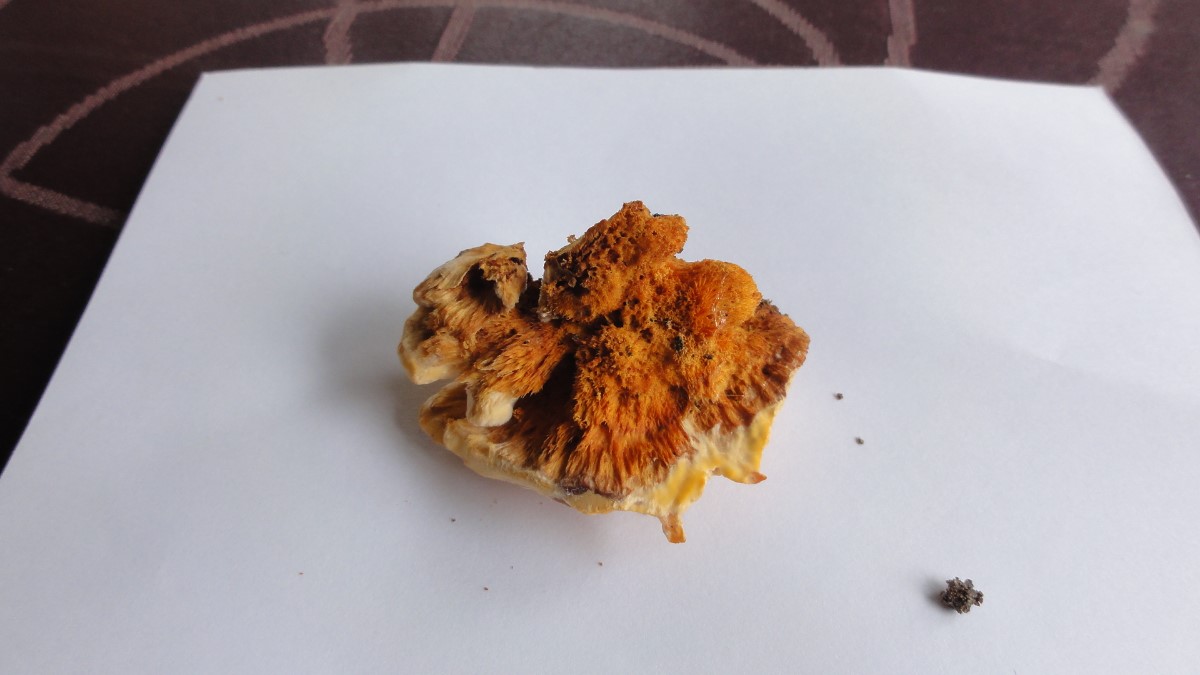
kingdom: Fungi
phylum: Basidiomycota
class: Agaricomycetes
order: Polyporales
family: Pycnoporellaceae
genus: Pycnoporellus
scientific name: Pycnoporellus fulgens
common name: flammeporesvamp
